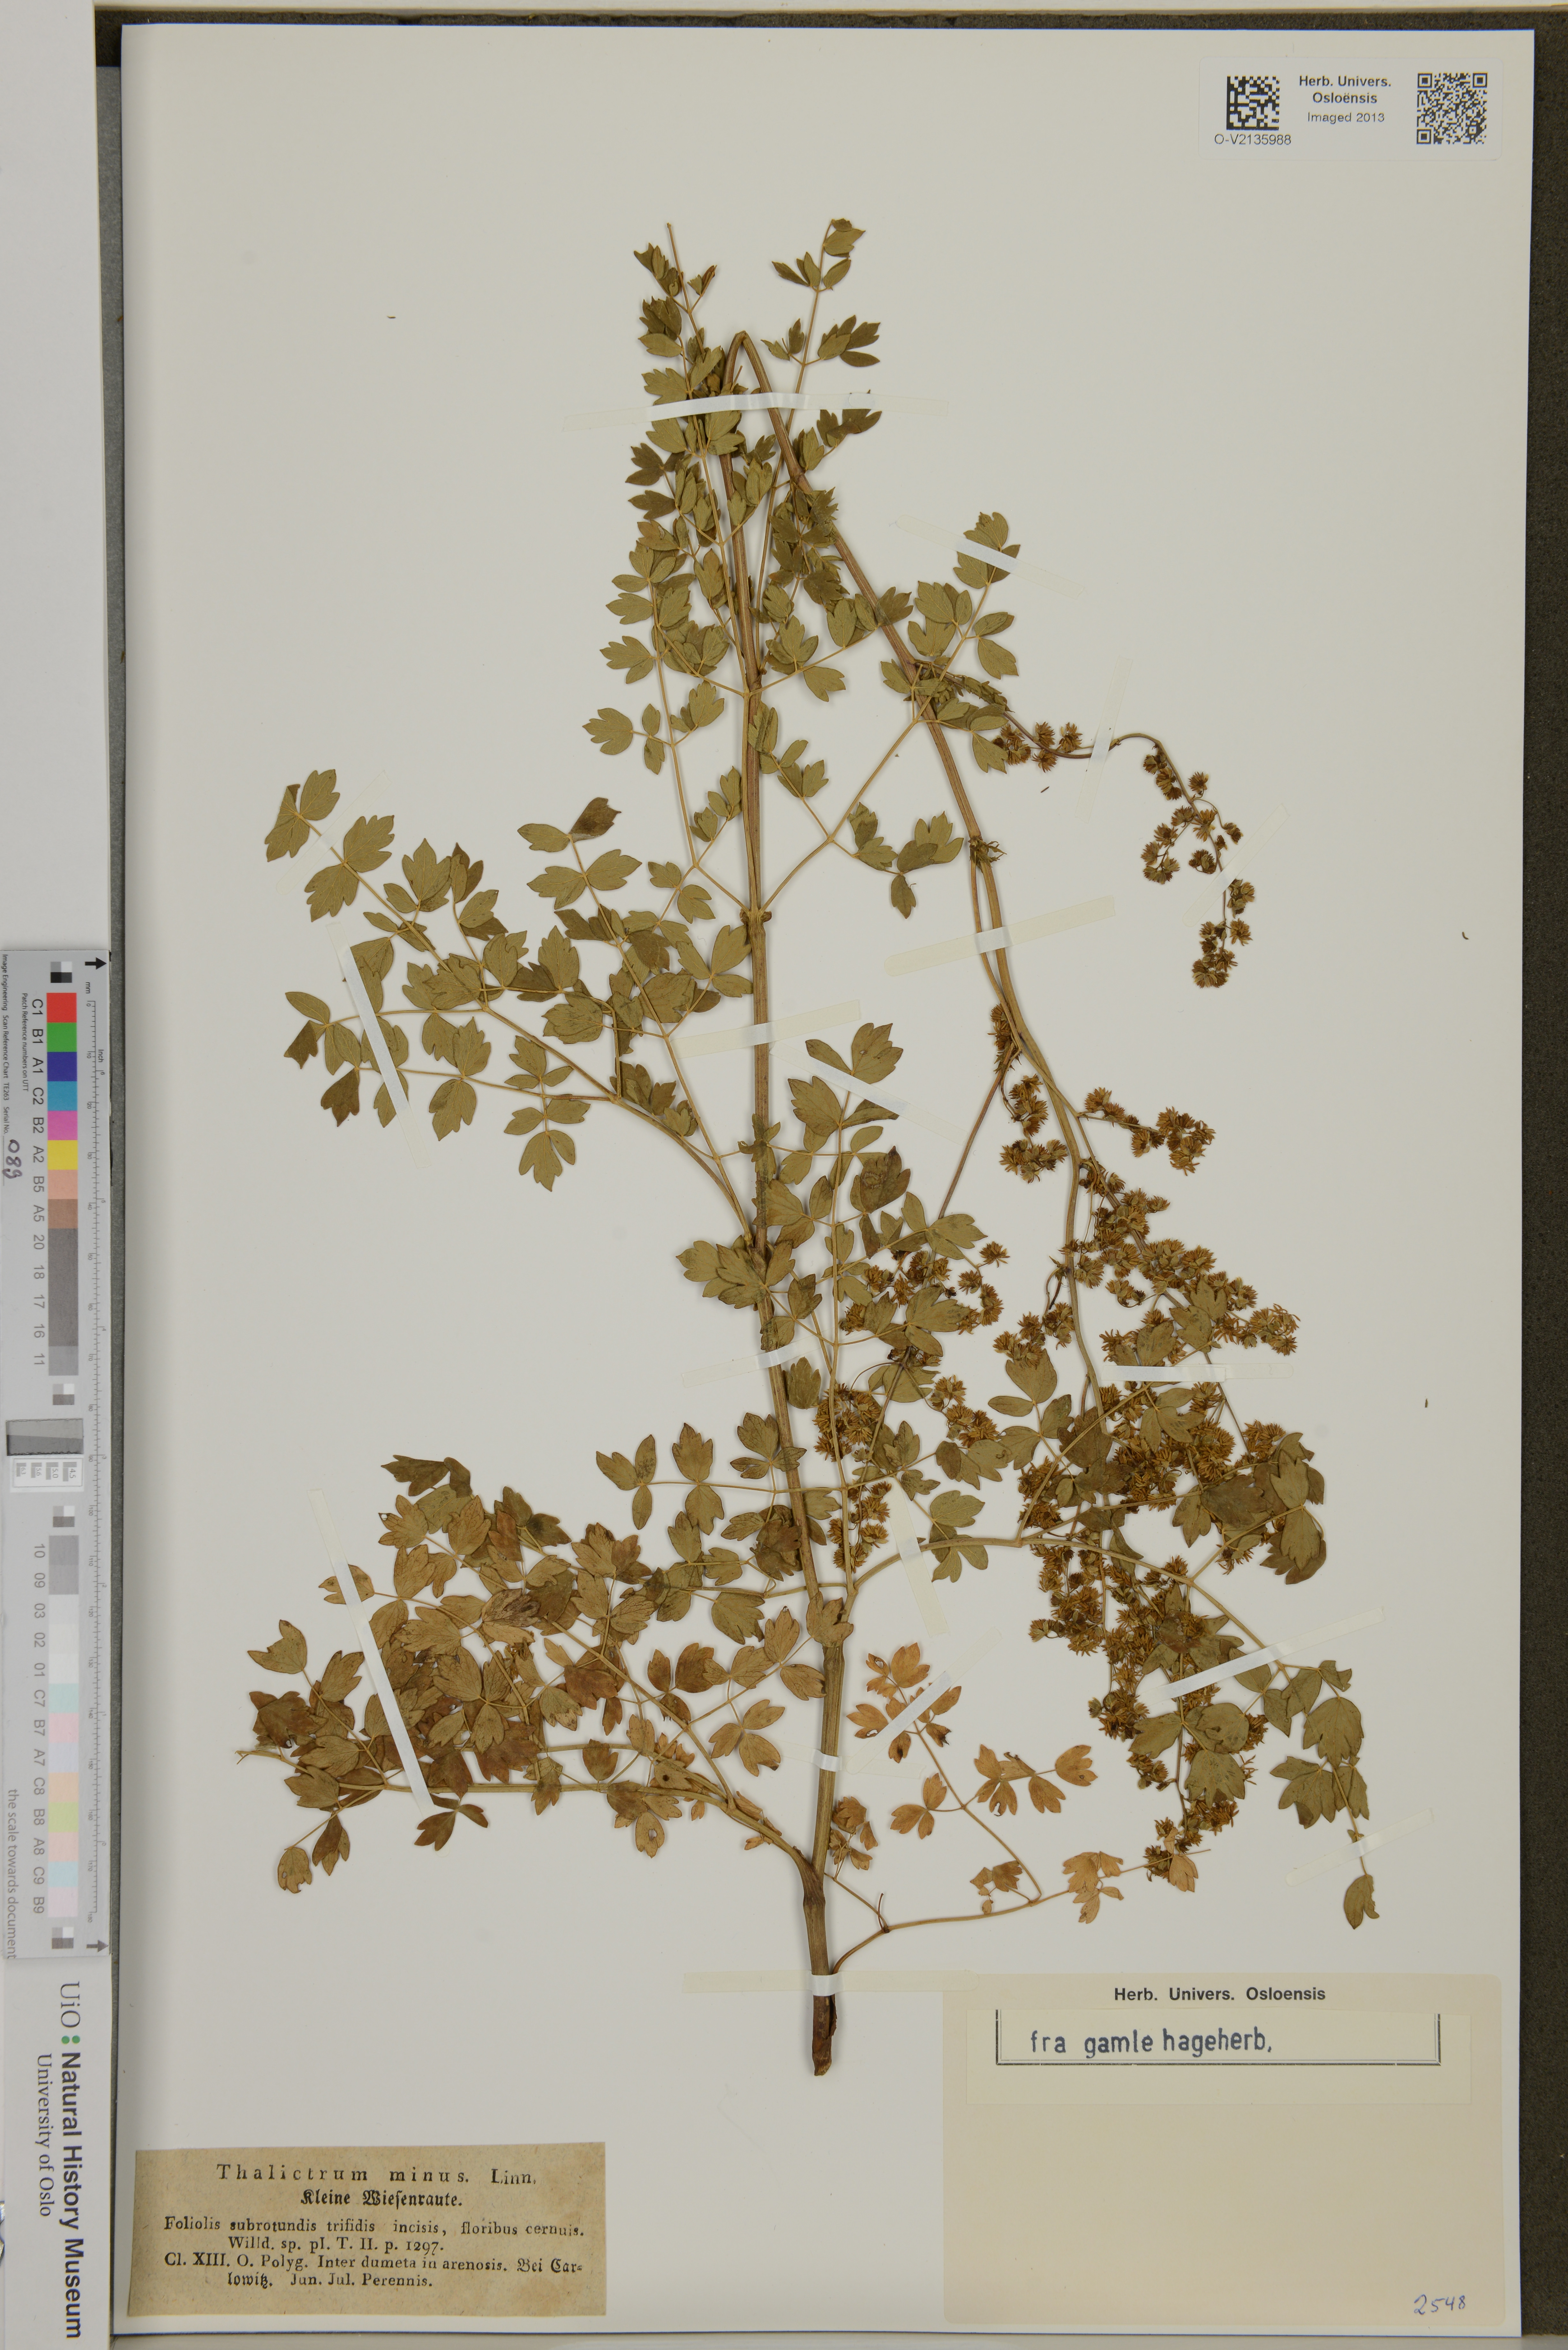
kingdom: Plantae
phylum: Tracheophyta
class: Magnoliopsida
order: Ranunculales
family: Ranunculaceae
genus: Thalictrum
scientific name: Thalictrum minus
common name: Lesser meadow-rue
